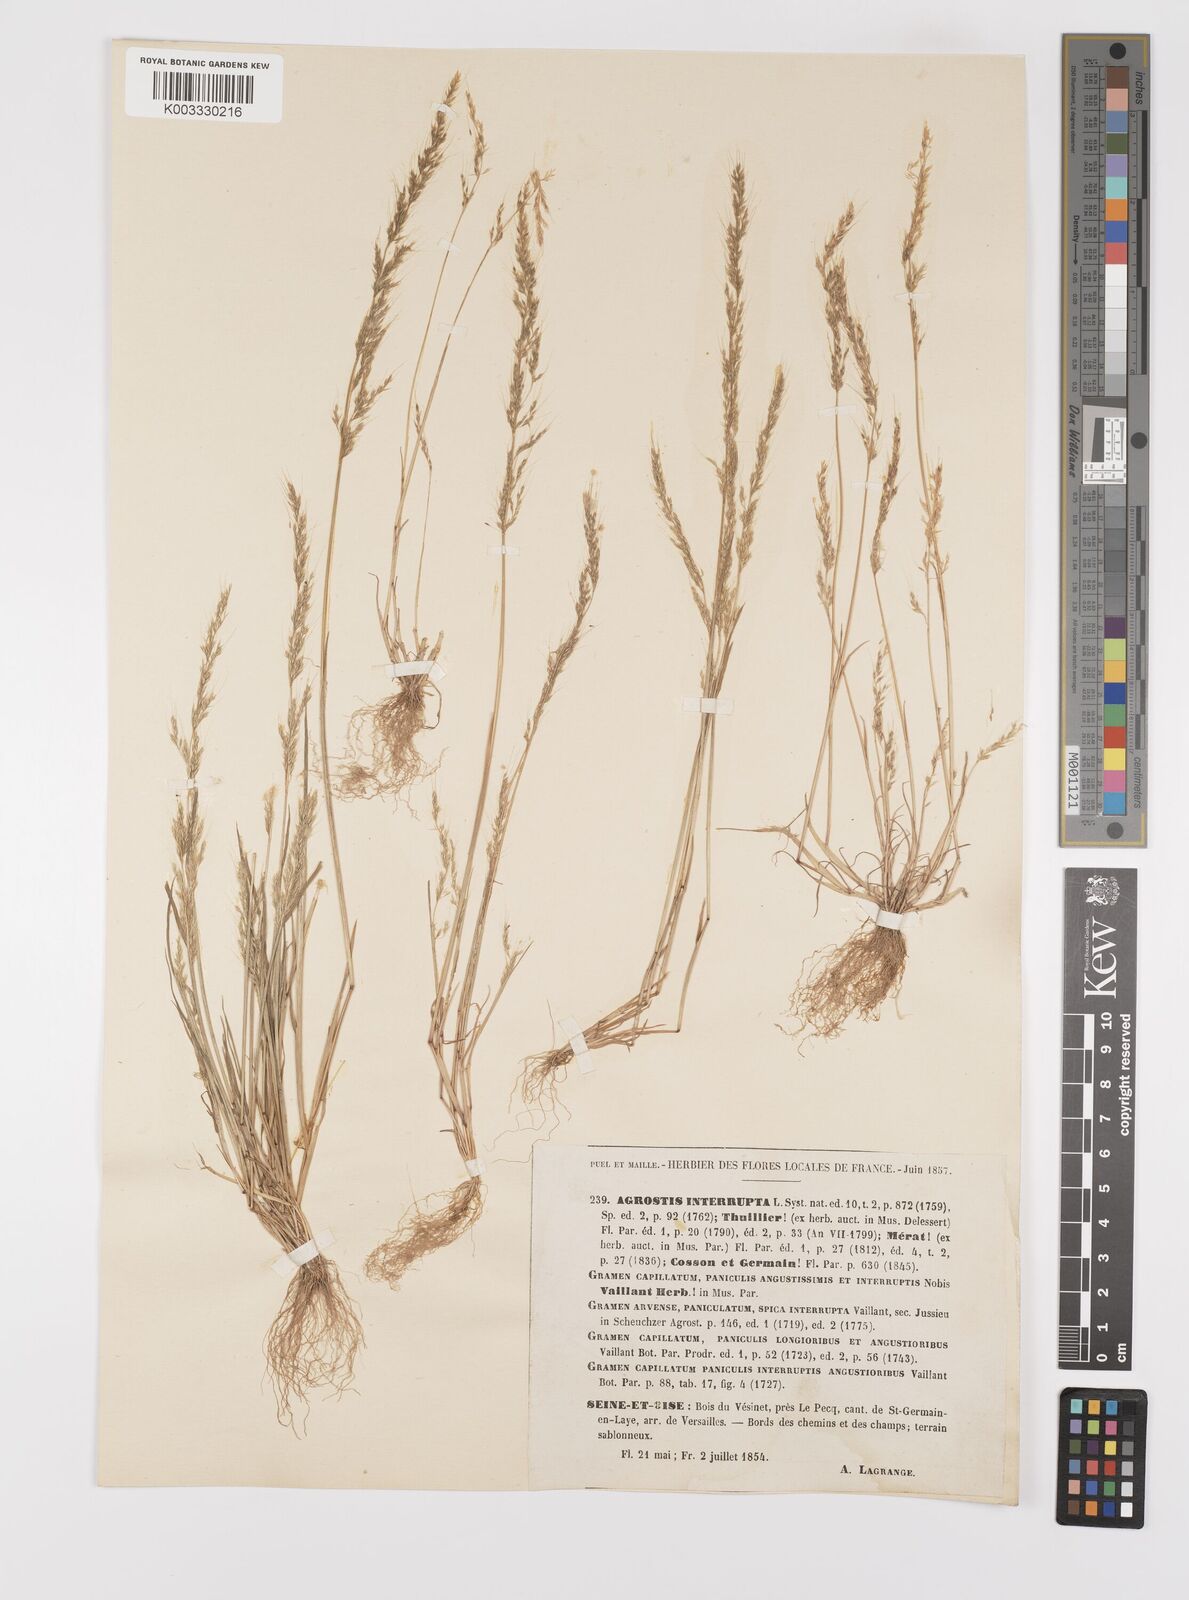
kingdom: Plantae
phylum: Tracheophyta
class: Liliopsida
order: Poales
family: Poaceae
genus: Apera
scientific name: Apera interrupta
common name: Dense silky-bent
